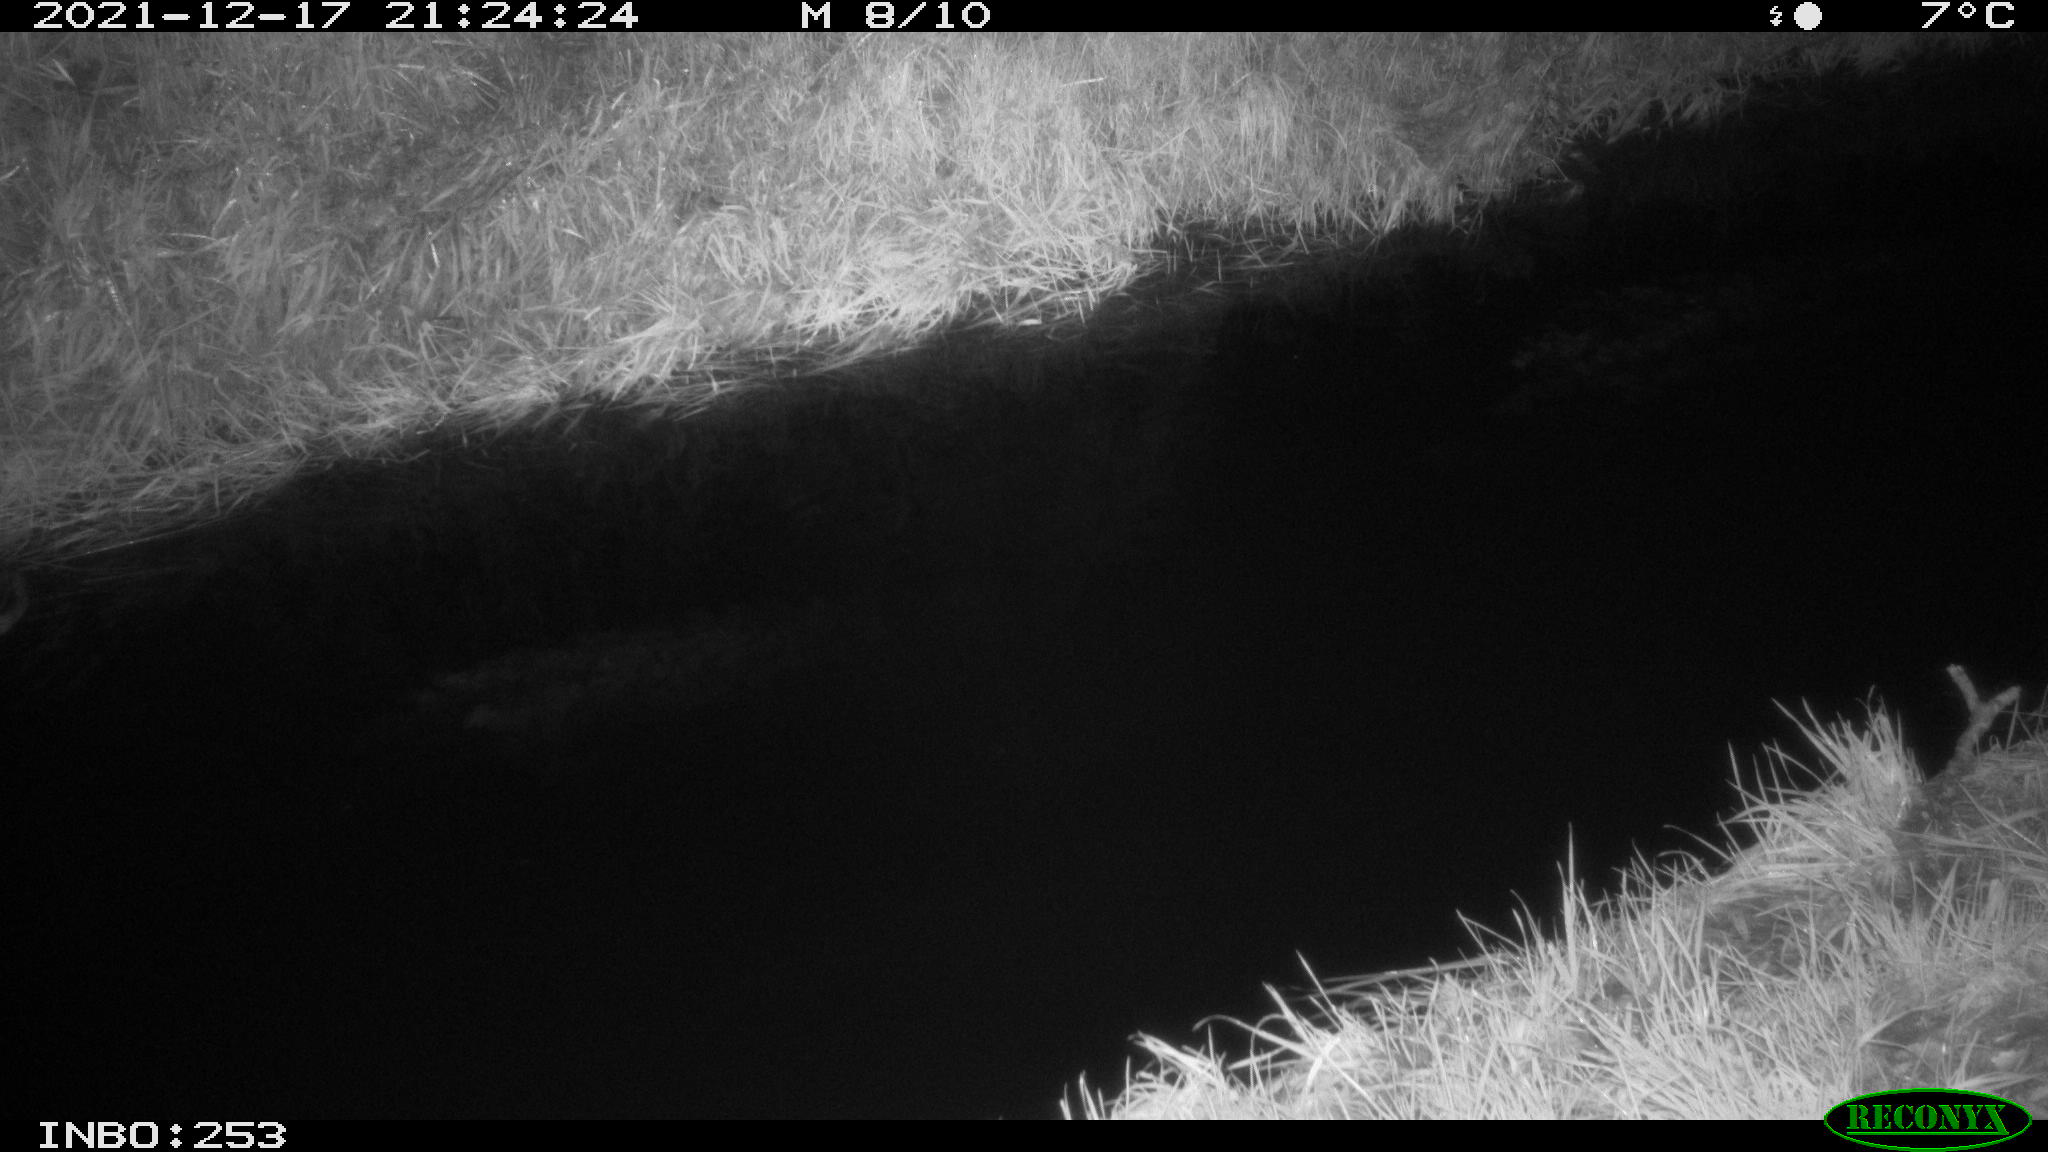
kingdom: Animalia
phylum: Chordata
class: Aves
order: Anseriformes
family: Anatidae
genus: Anas
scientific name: Anas
